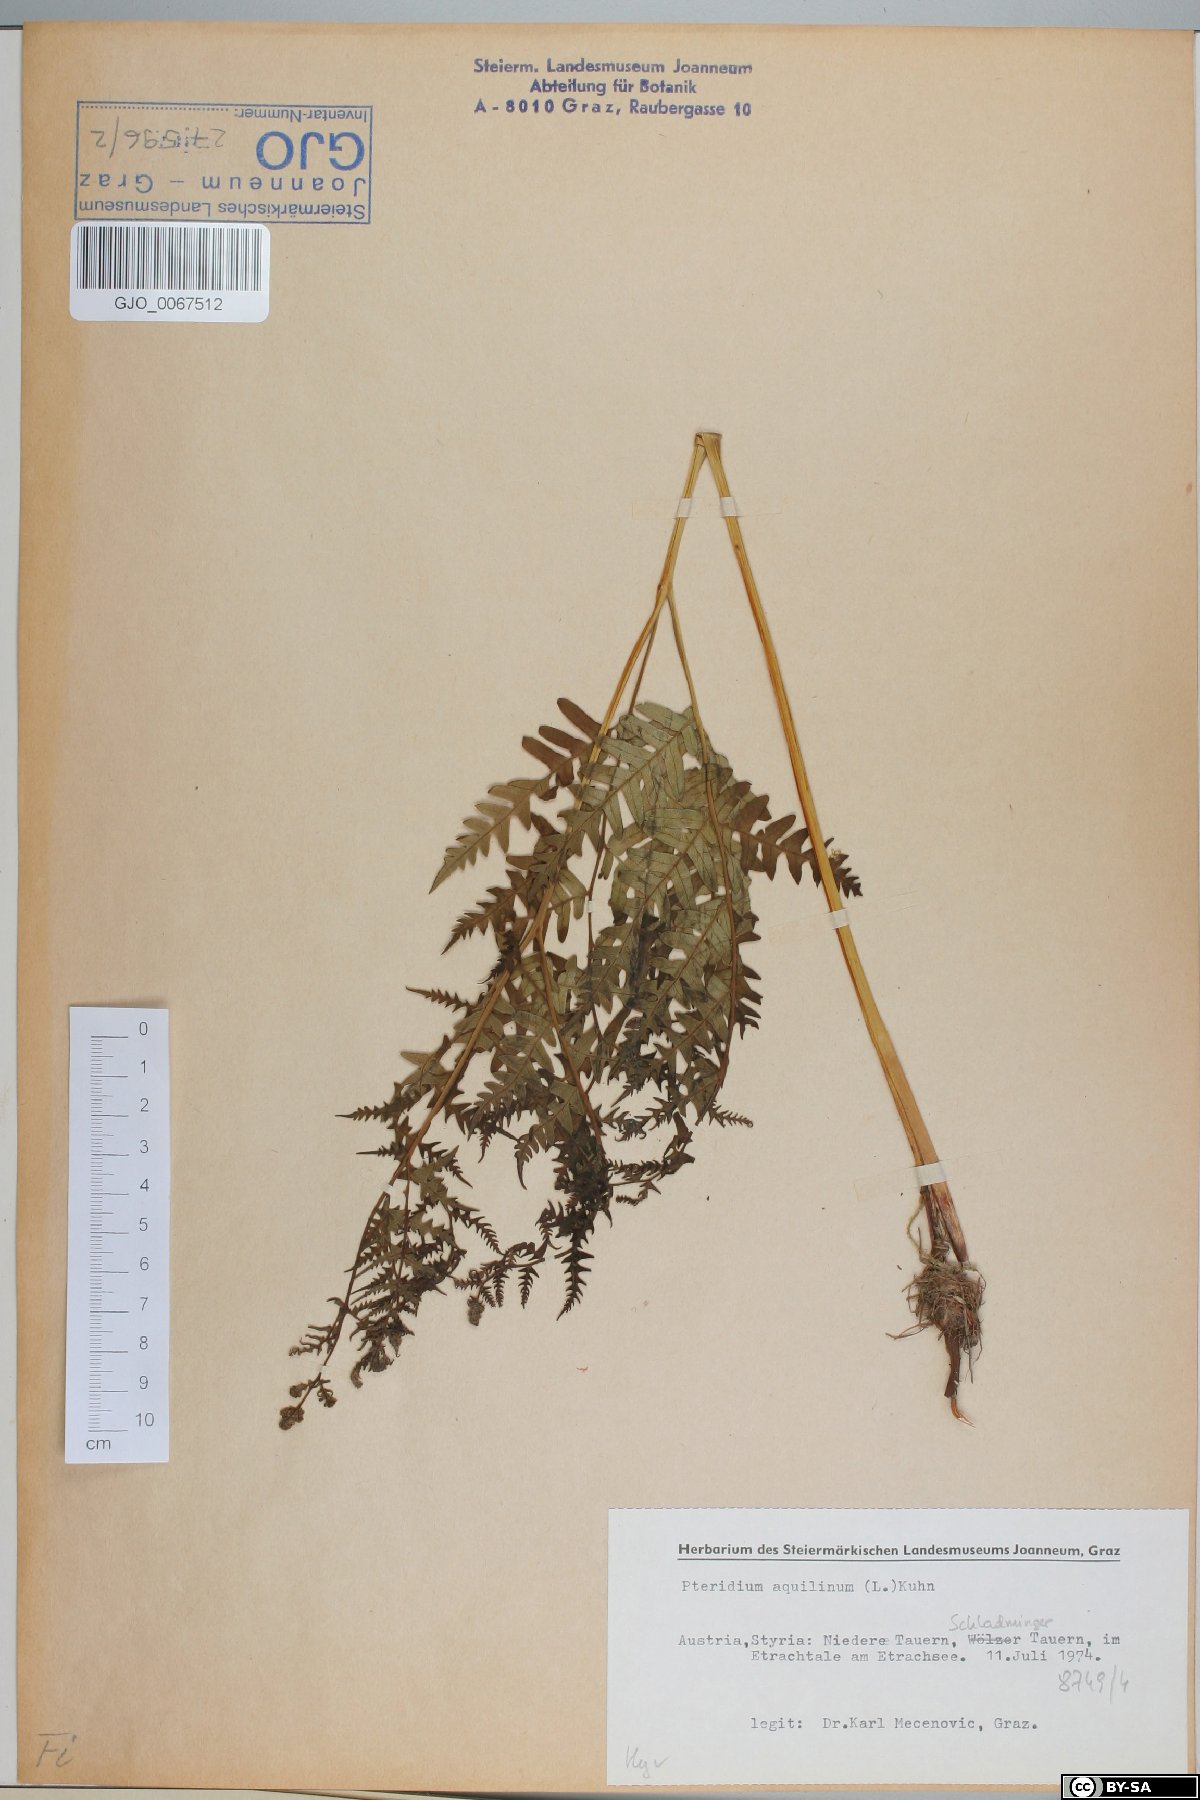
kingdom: Plantae
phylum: Tracheophyta
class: Polypodiopsida
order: Polypodiales
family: Dennstaedtiaceae
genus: Pteridium
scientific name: Pteridium aquilinum
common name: Bracken
